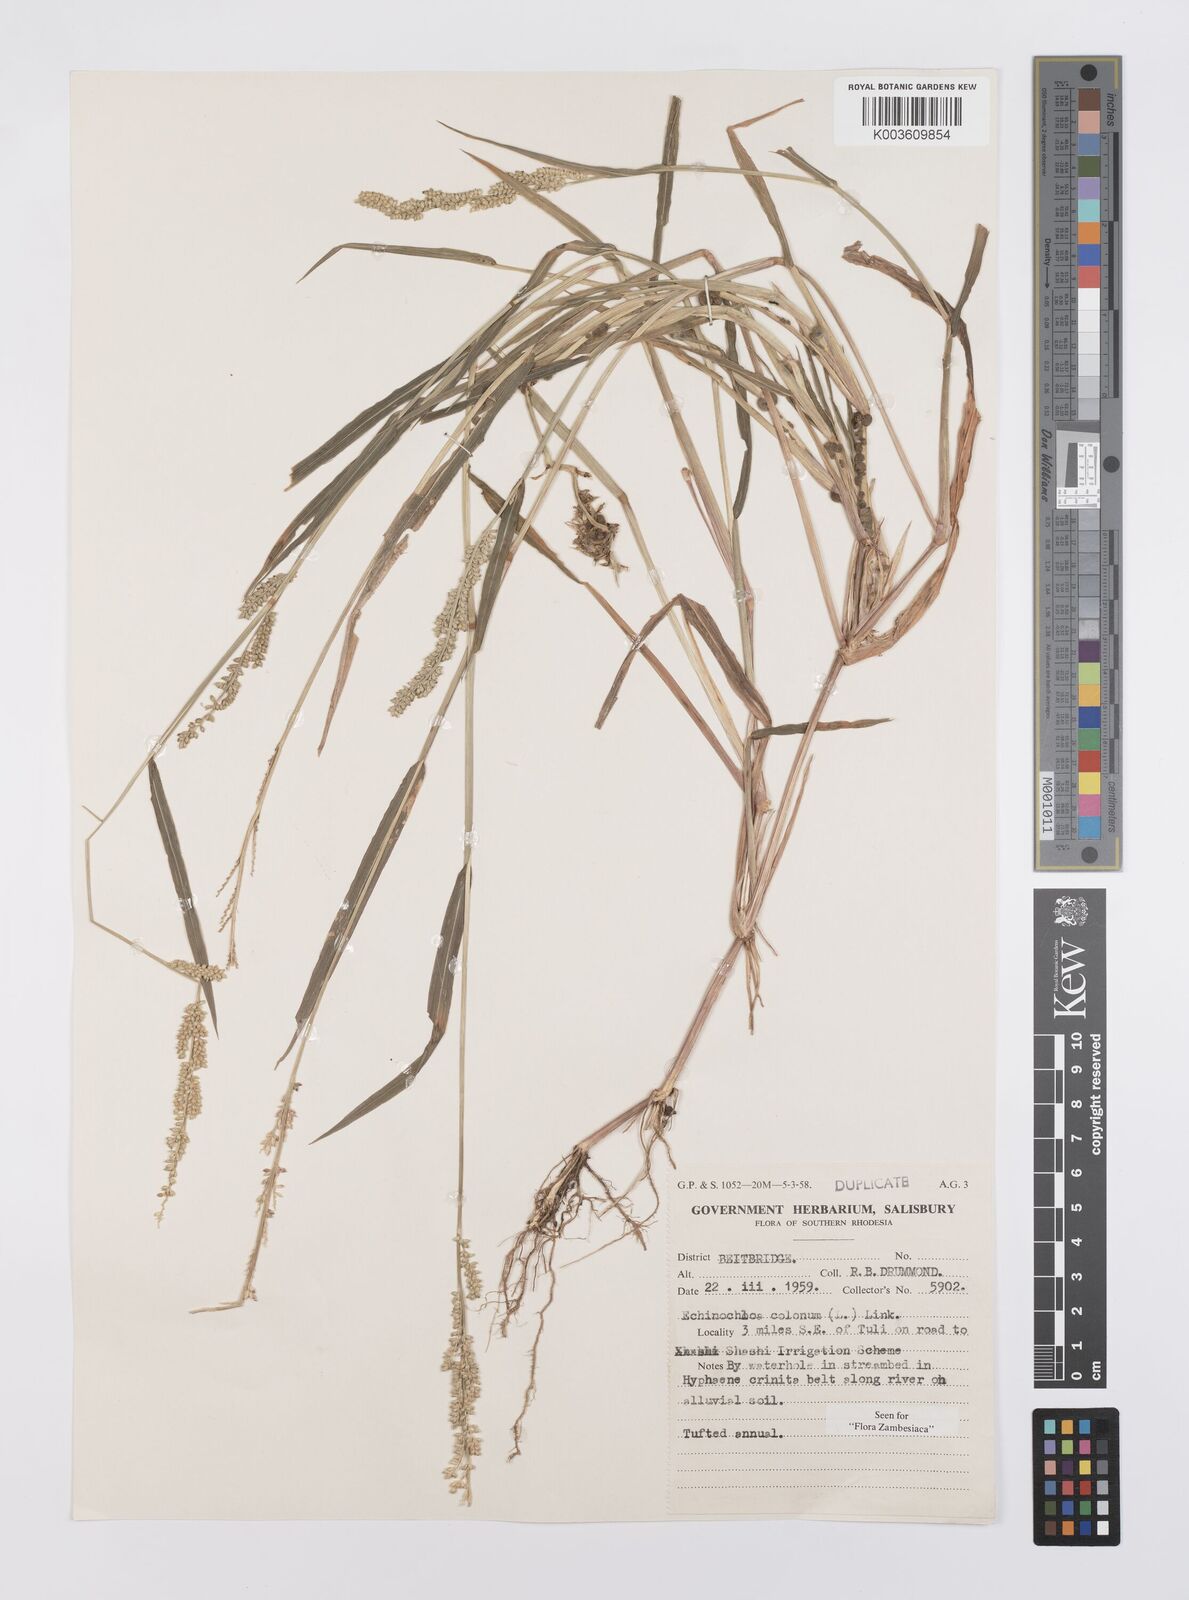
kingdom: Plantae
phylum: Tracheophyta
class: Liliopsida
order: Poales
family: Poaceae
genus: Echinochloa
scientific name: Echinochloa colonum
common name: Jungle rice
